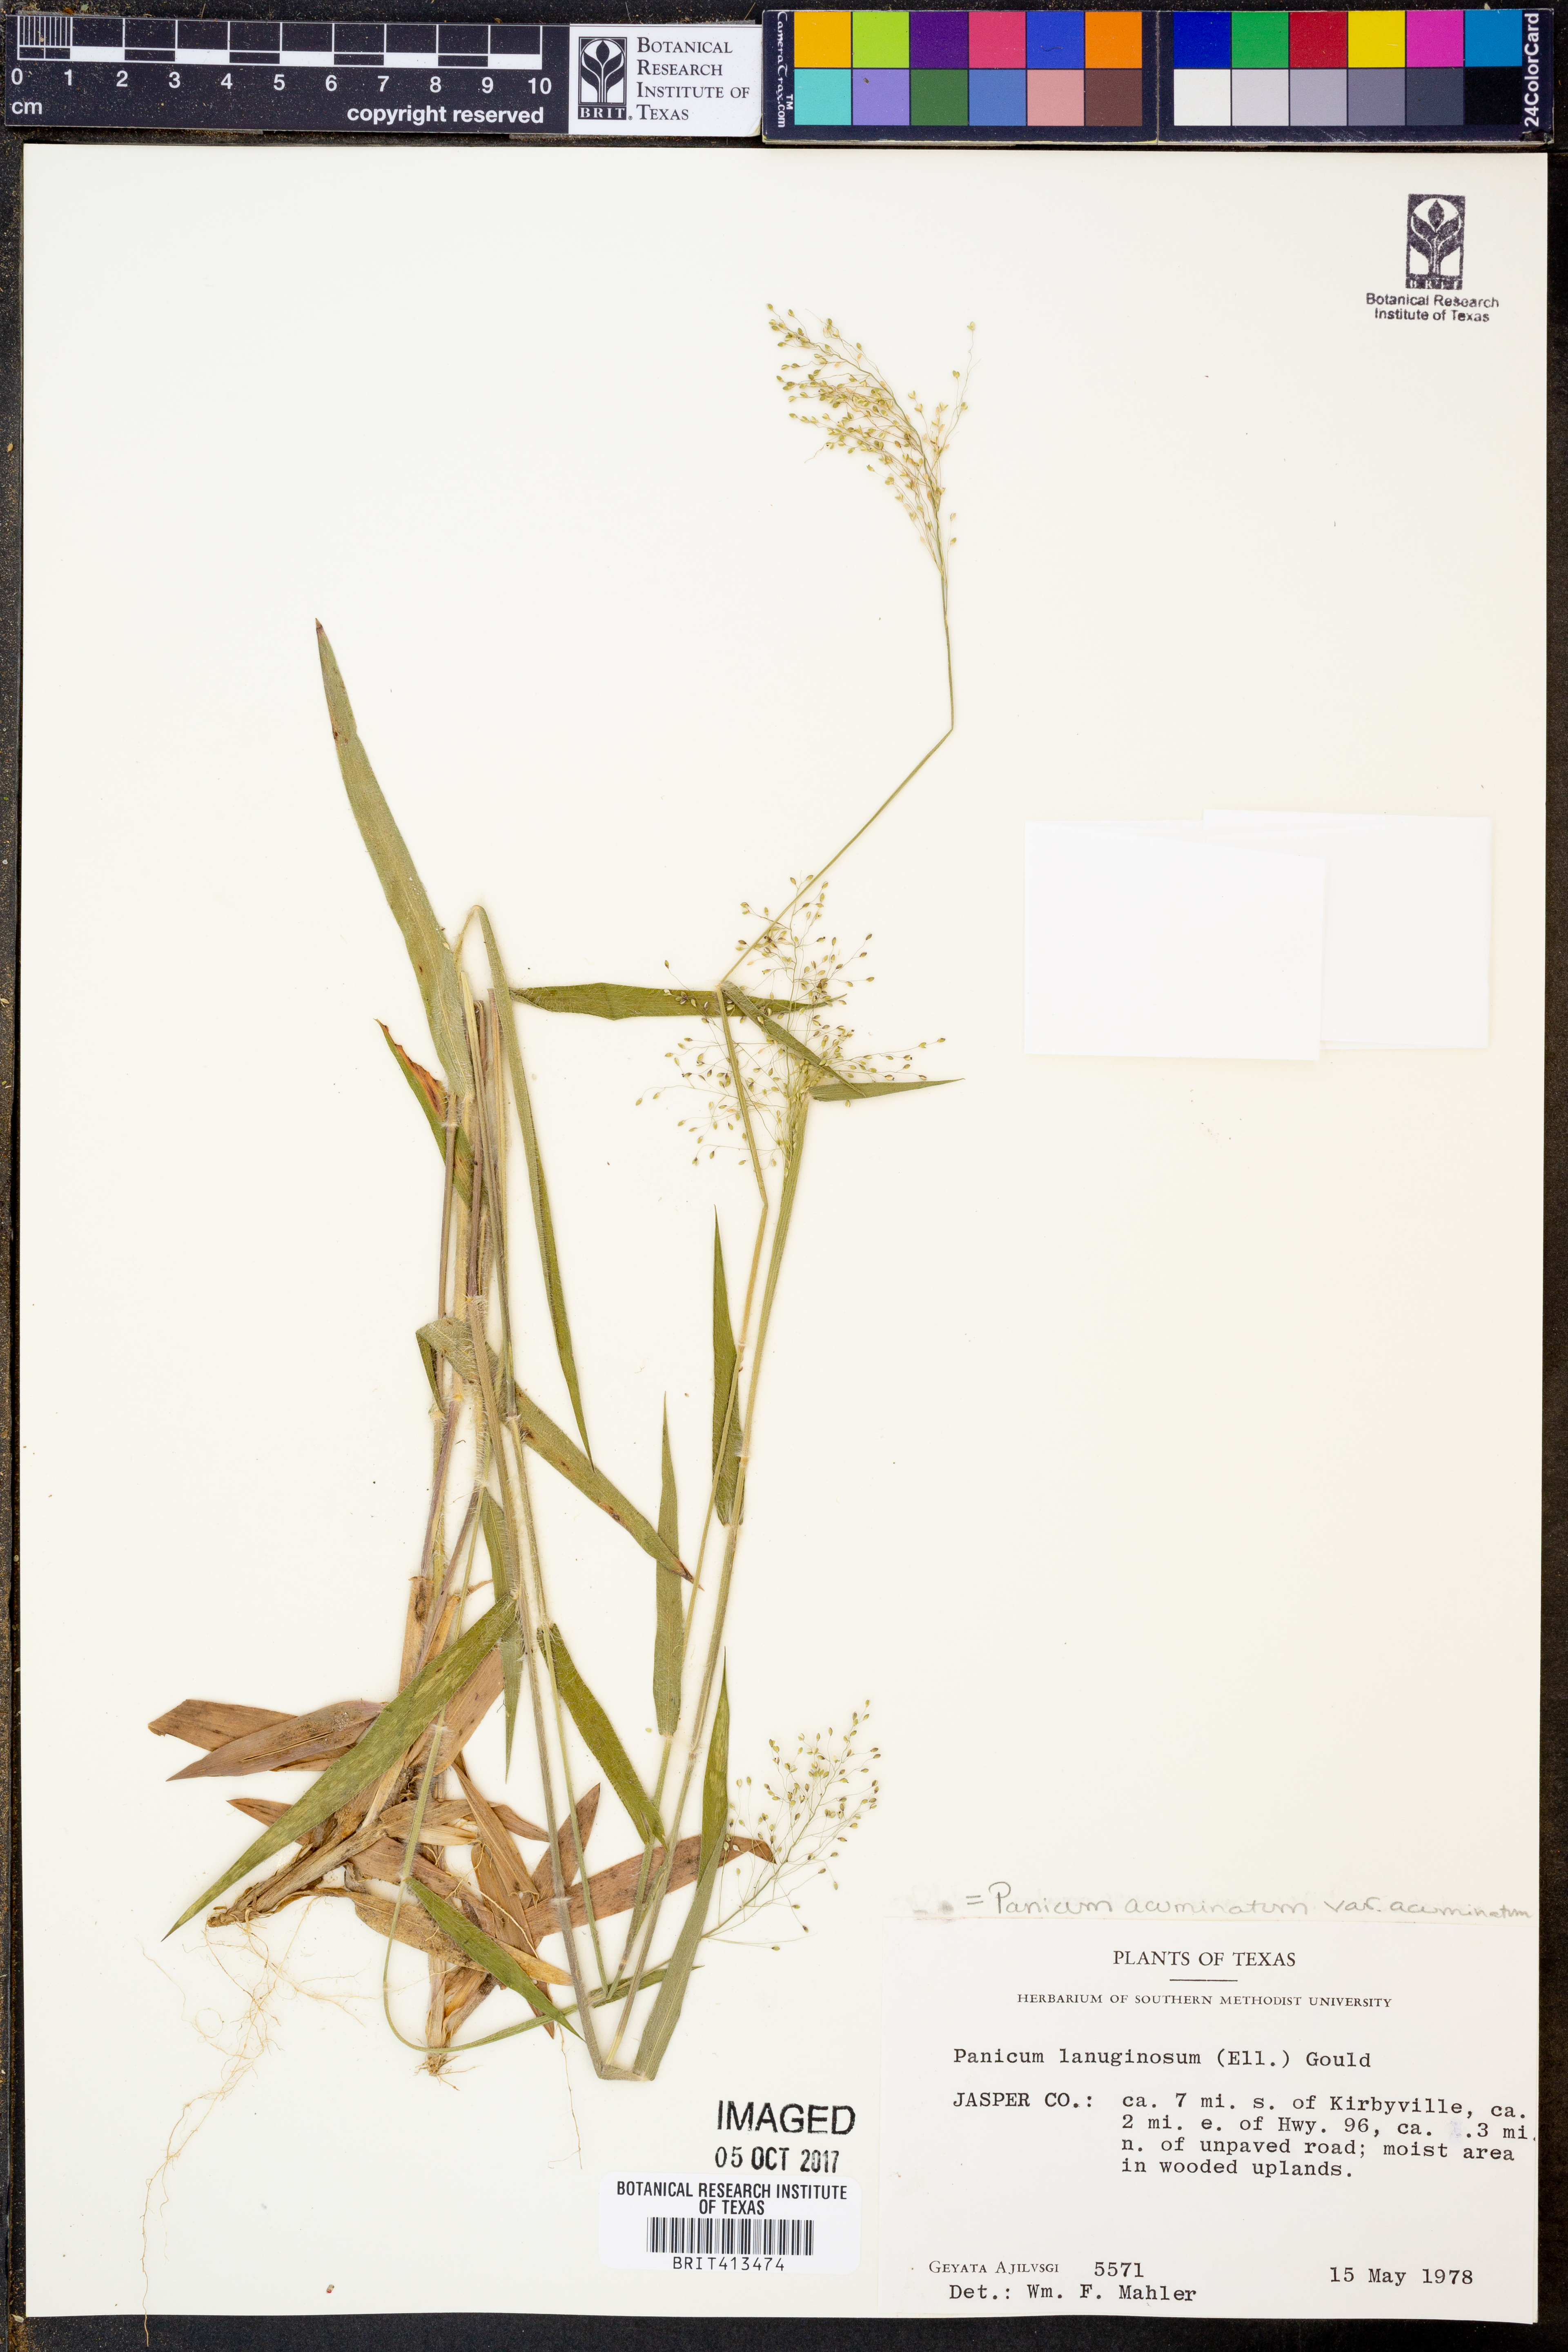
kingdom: Plantae
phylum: Tracheophyta
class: Liliopsida
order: Poales
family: Poaceae
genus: Dichanthelium
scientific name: Dichanthelium lanuginosum
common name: Woolly panicgrass
